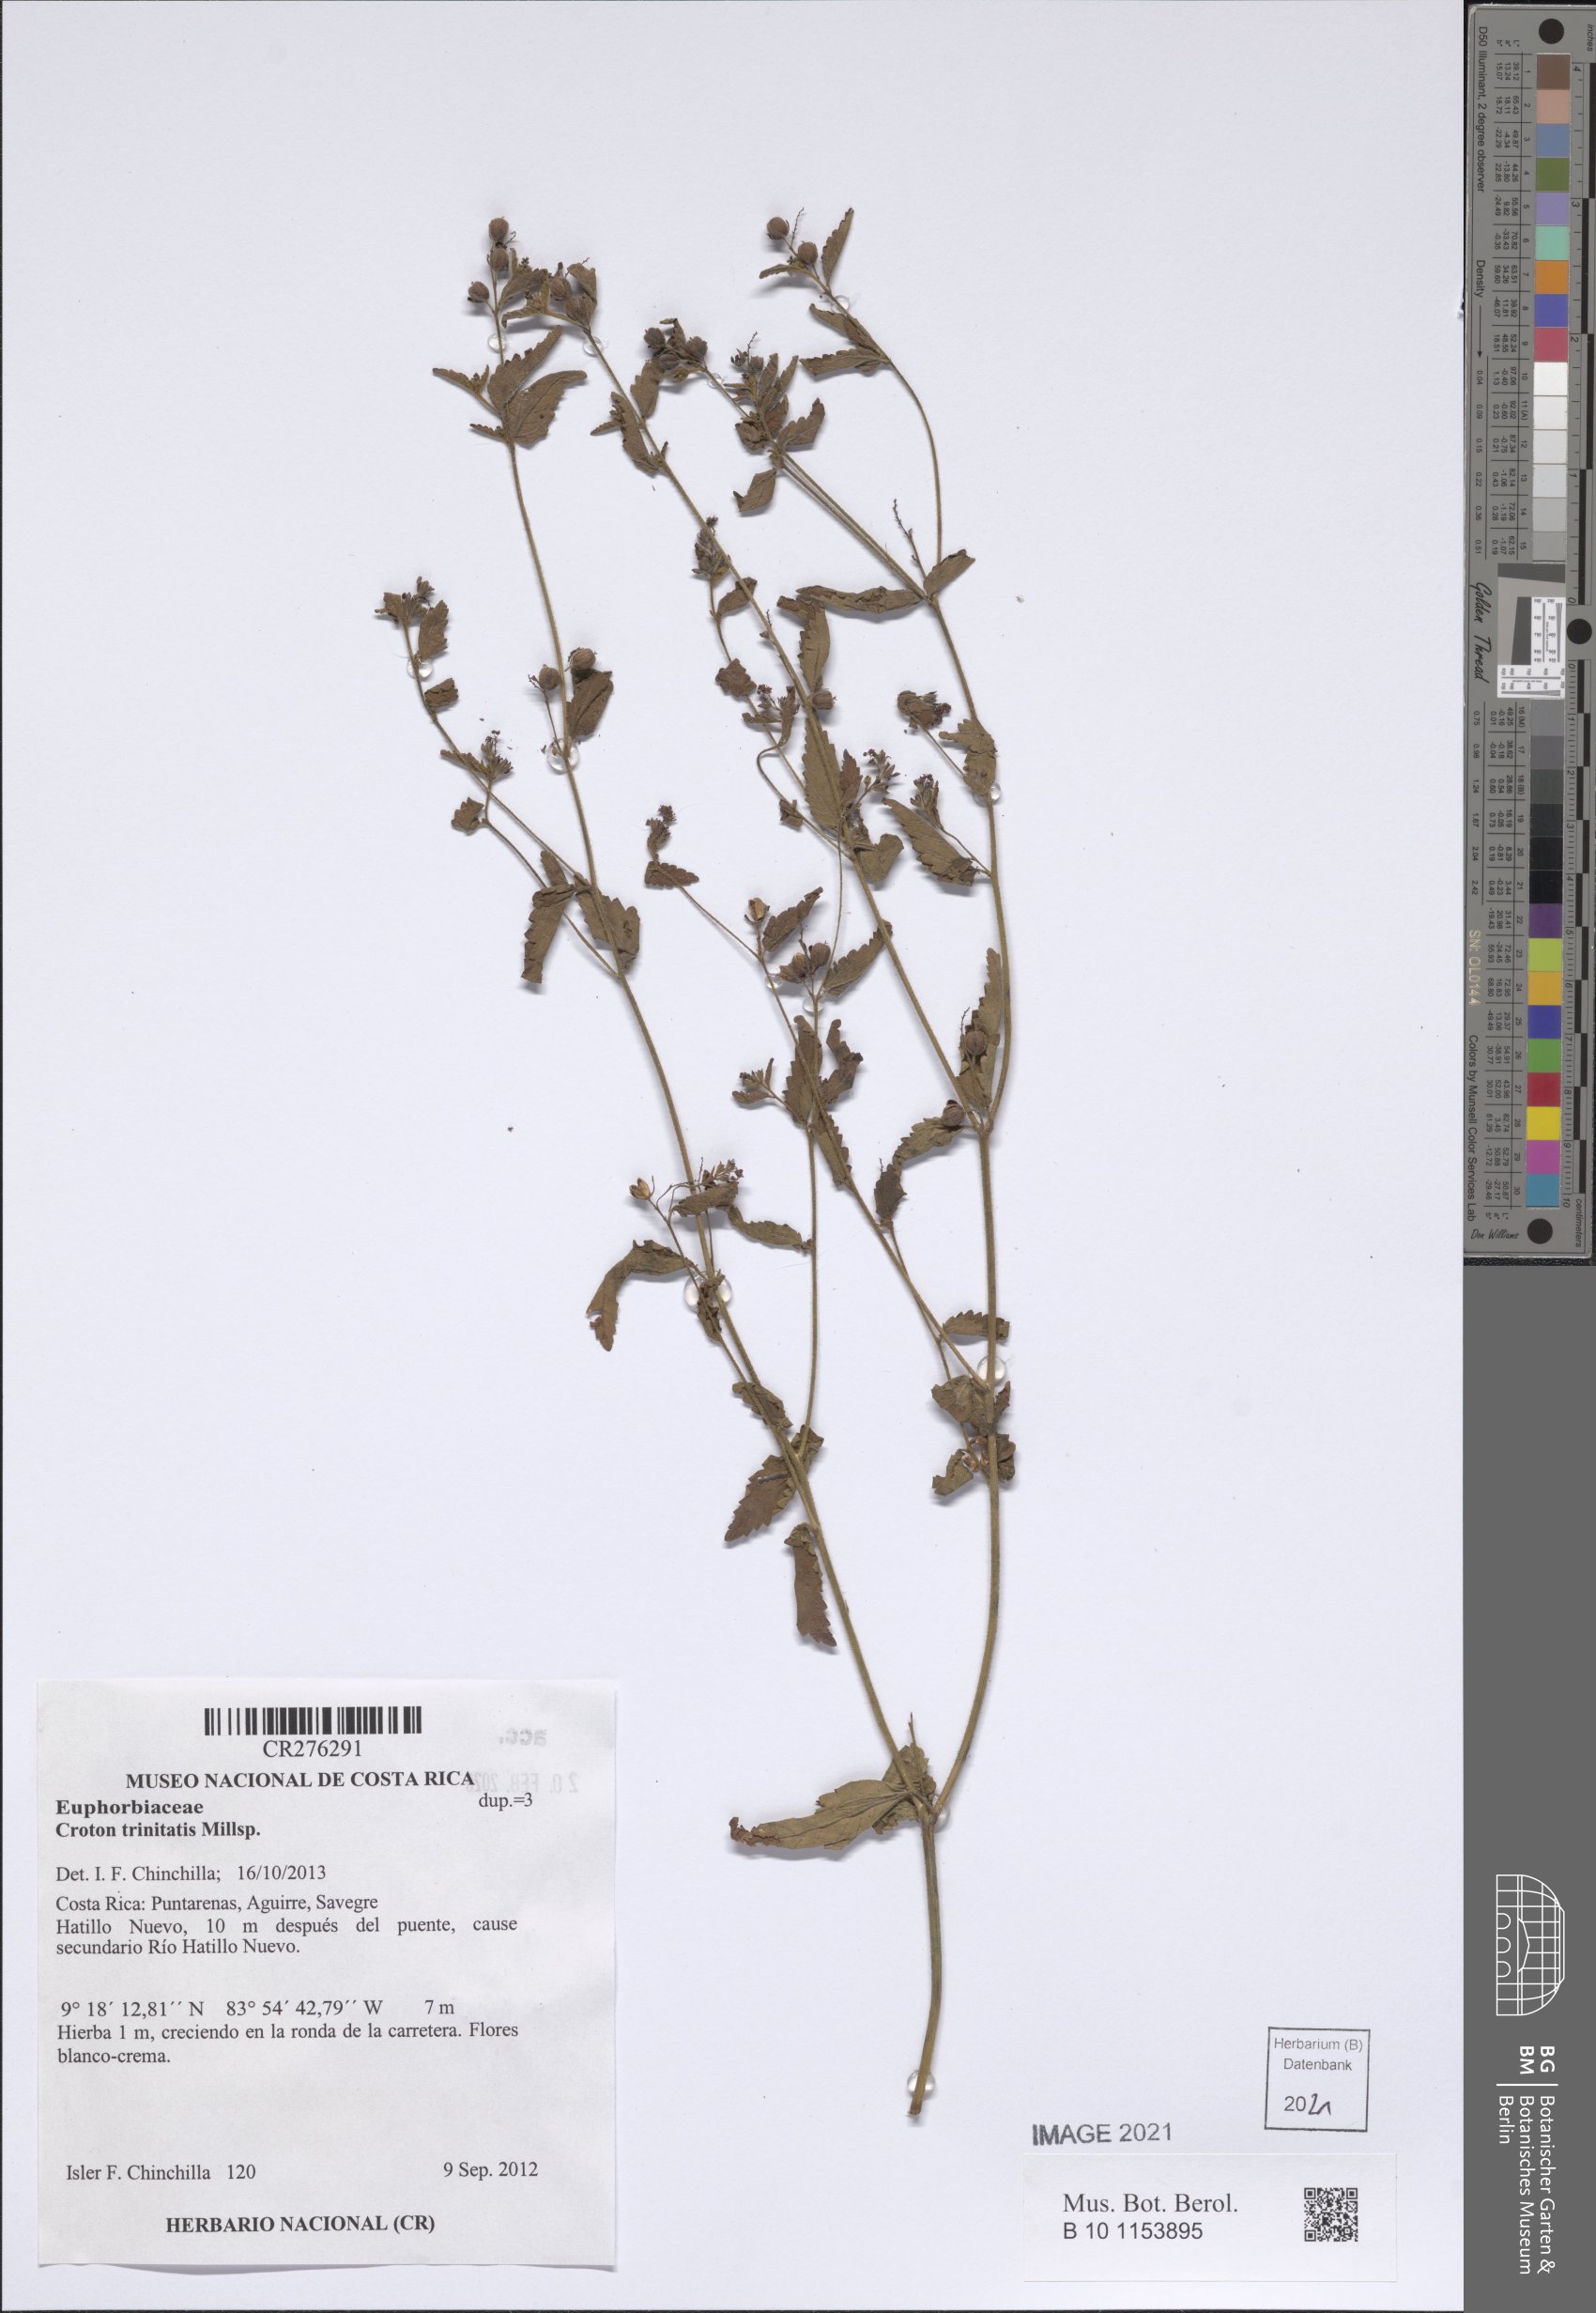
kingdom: Plantae
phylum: Tracheophyta
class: Magnoliopsida
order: Malpighiales
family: Euphorbiaceae
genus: Croton
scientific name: Croton trinitatis
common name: Roadside croton
